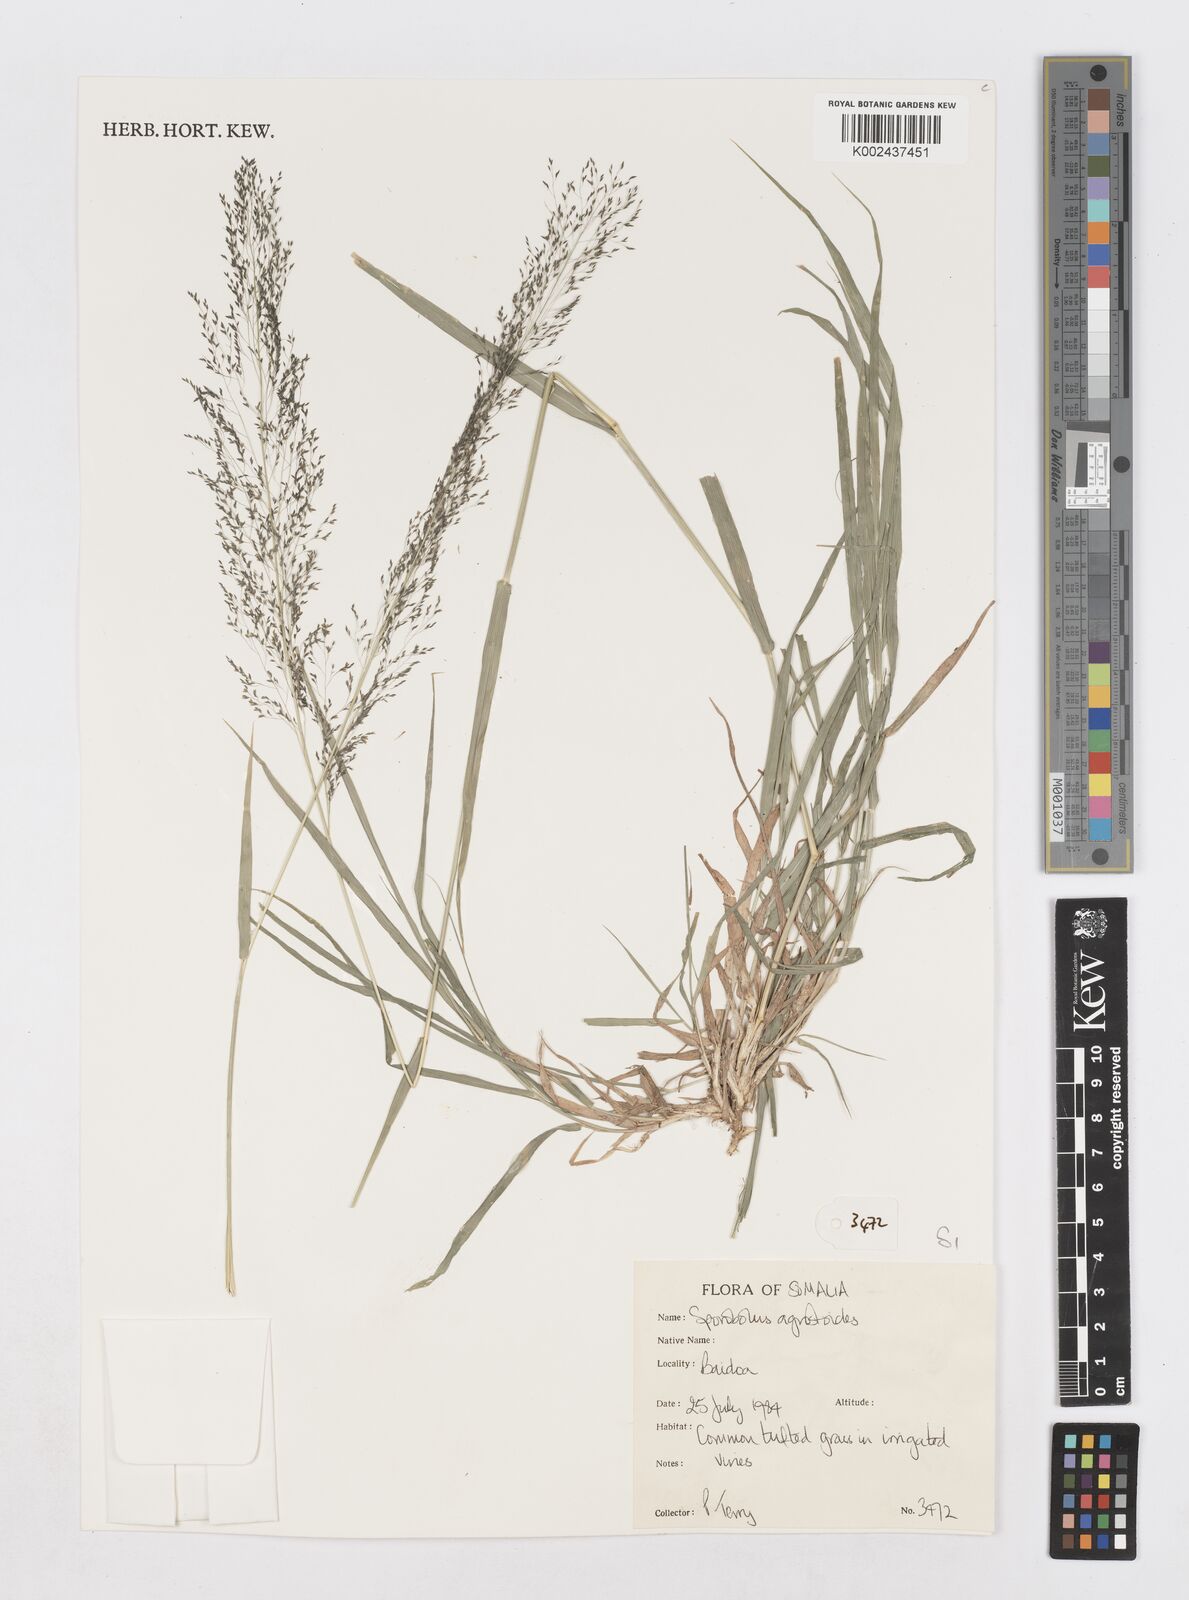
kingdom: Plantae
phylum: Tracheophyta
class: Liliopsida
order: Poales
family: Poaceae
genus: Sporobolus
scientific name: Sporobolus agrostoides
